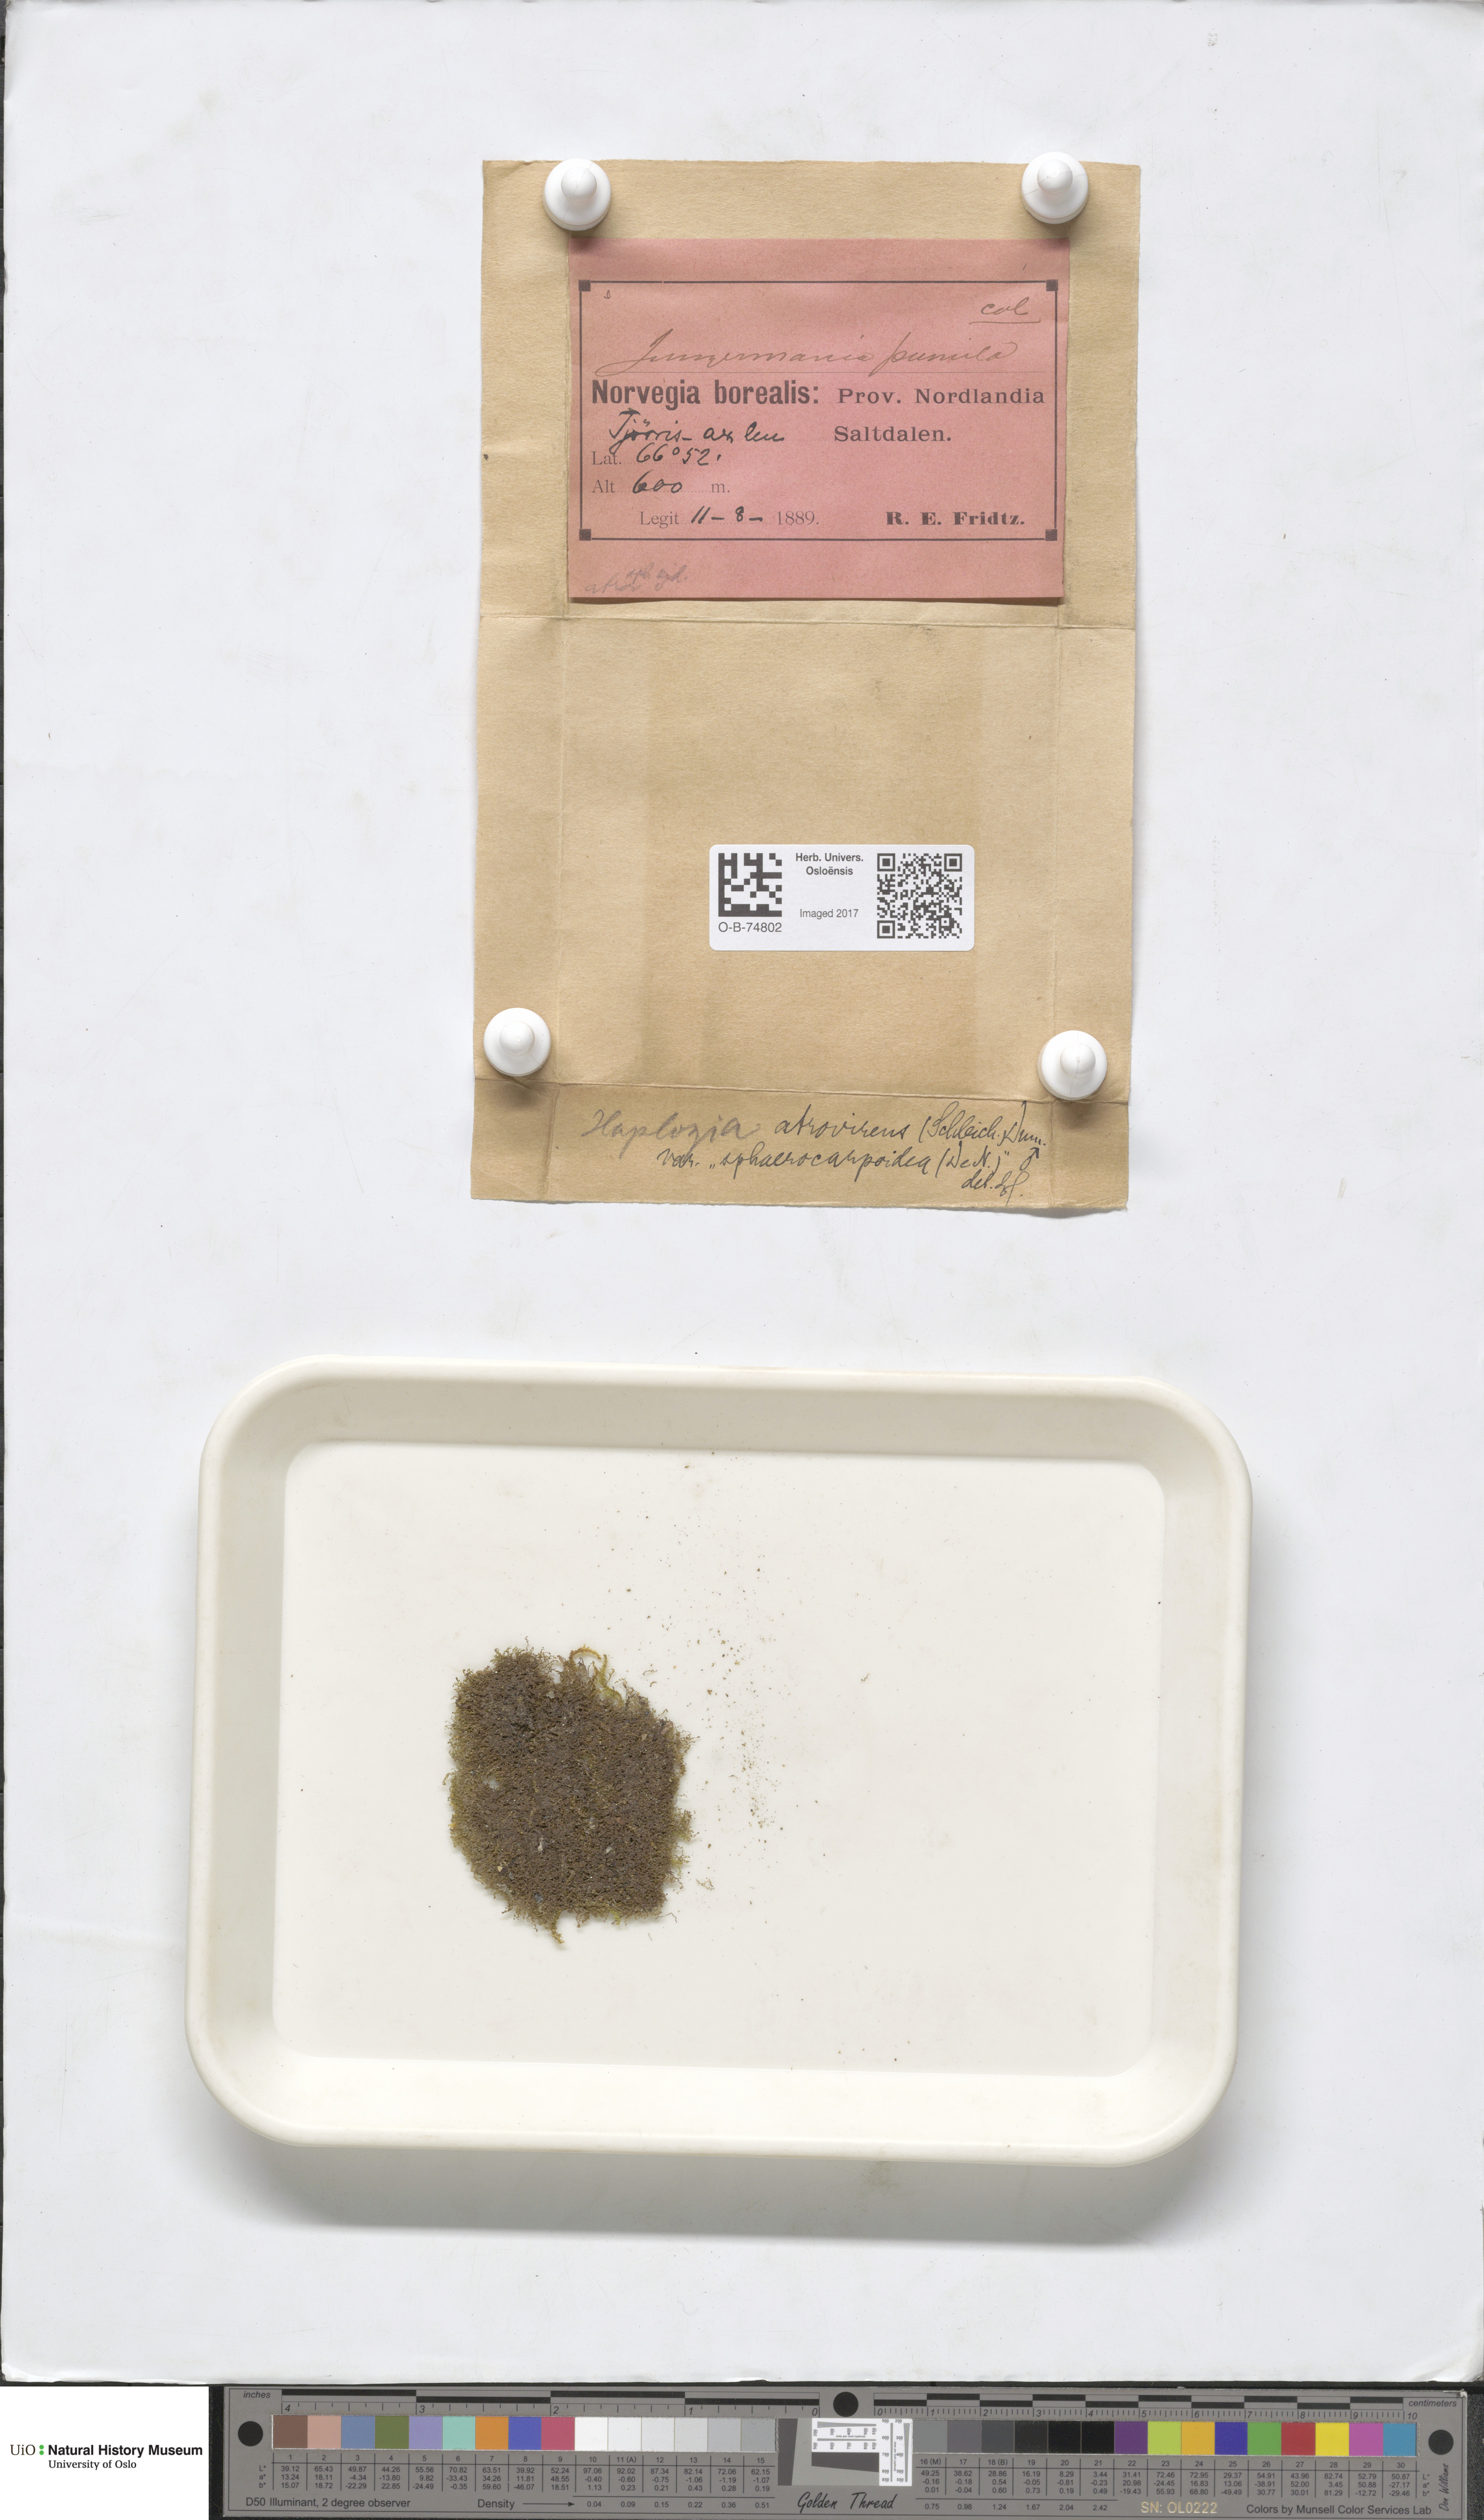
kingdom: Plantae
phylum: Marchantiophyta
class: Jungermanniopsida
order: Jungermanniales
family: Jungermanniaceae
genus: Jungermannia
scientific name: Jungermannia atrovirens
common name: Dark-green flapwort
